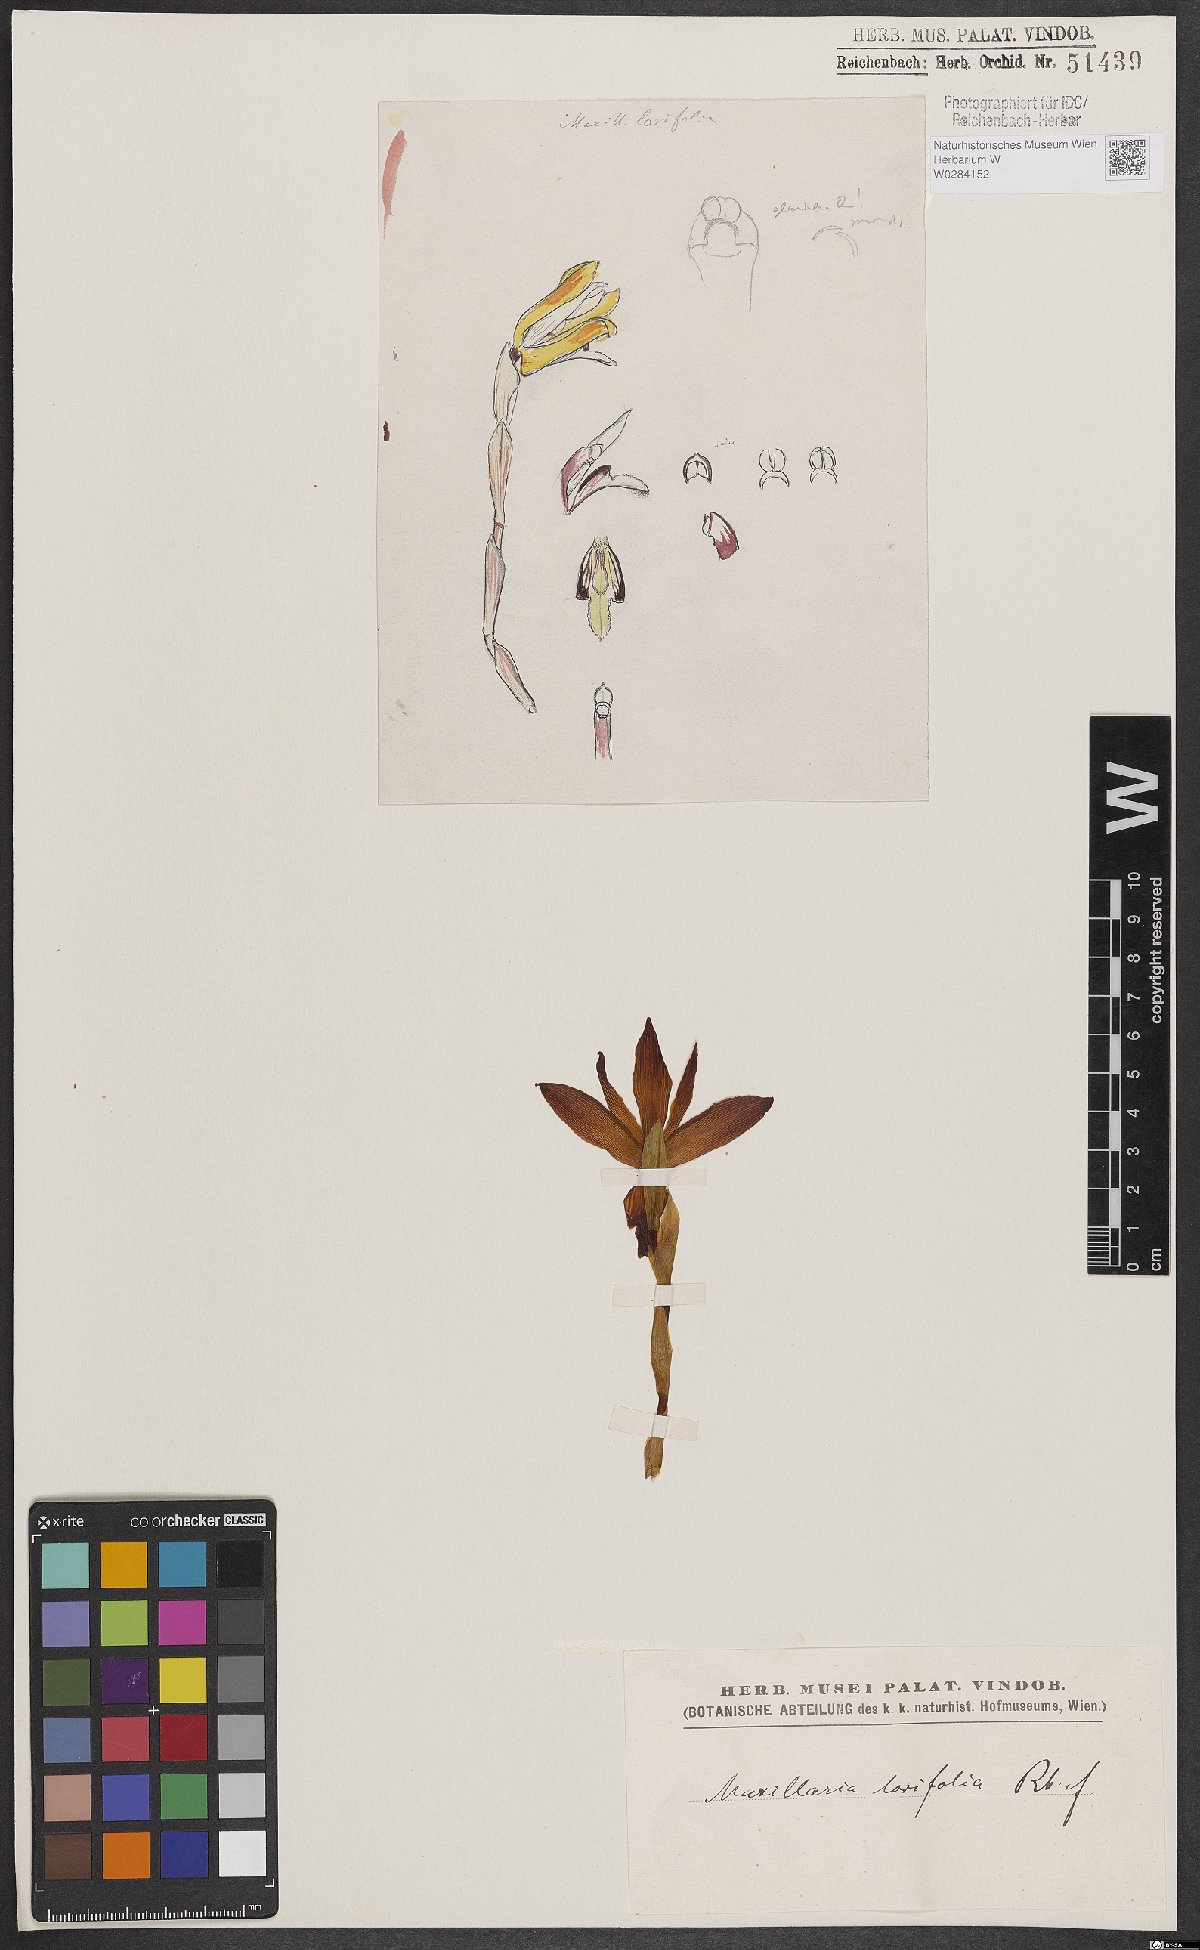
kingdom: Plantae
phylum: Tracheophyta
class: Liliopsida
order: Asparagales
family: Orchidaceae
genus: Maxillaria
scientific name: Maxillaria parkeri
